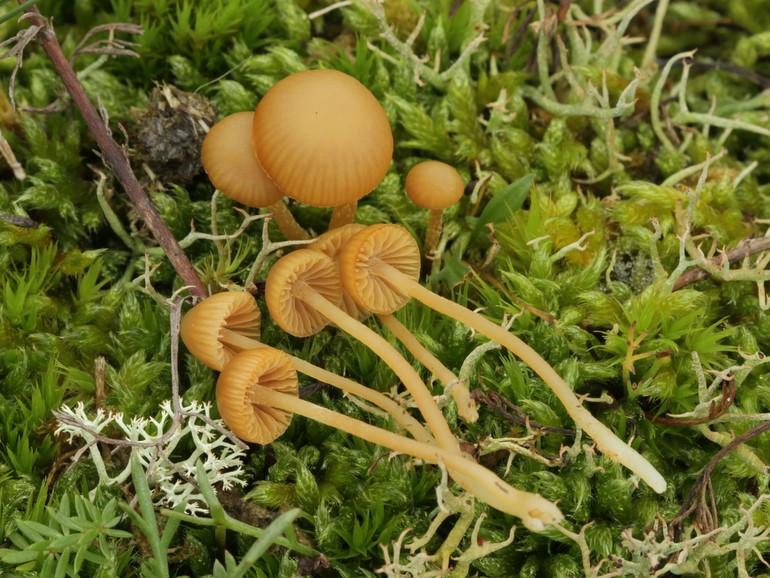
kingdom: Fungi
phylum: Basidiomycota
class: Agaricomycetes
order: Agaricales
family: Hymenogastraceae
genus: Galerina
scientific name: Galerina pumila
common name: honninggul hjelmhat
